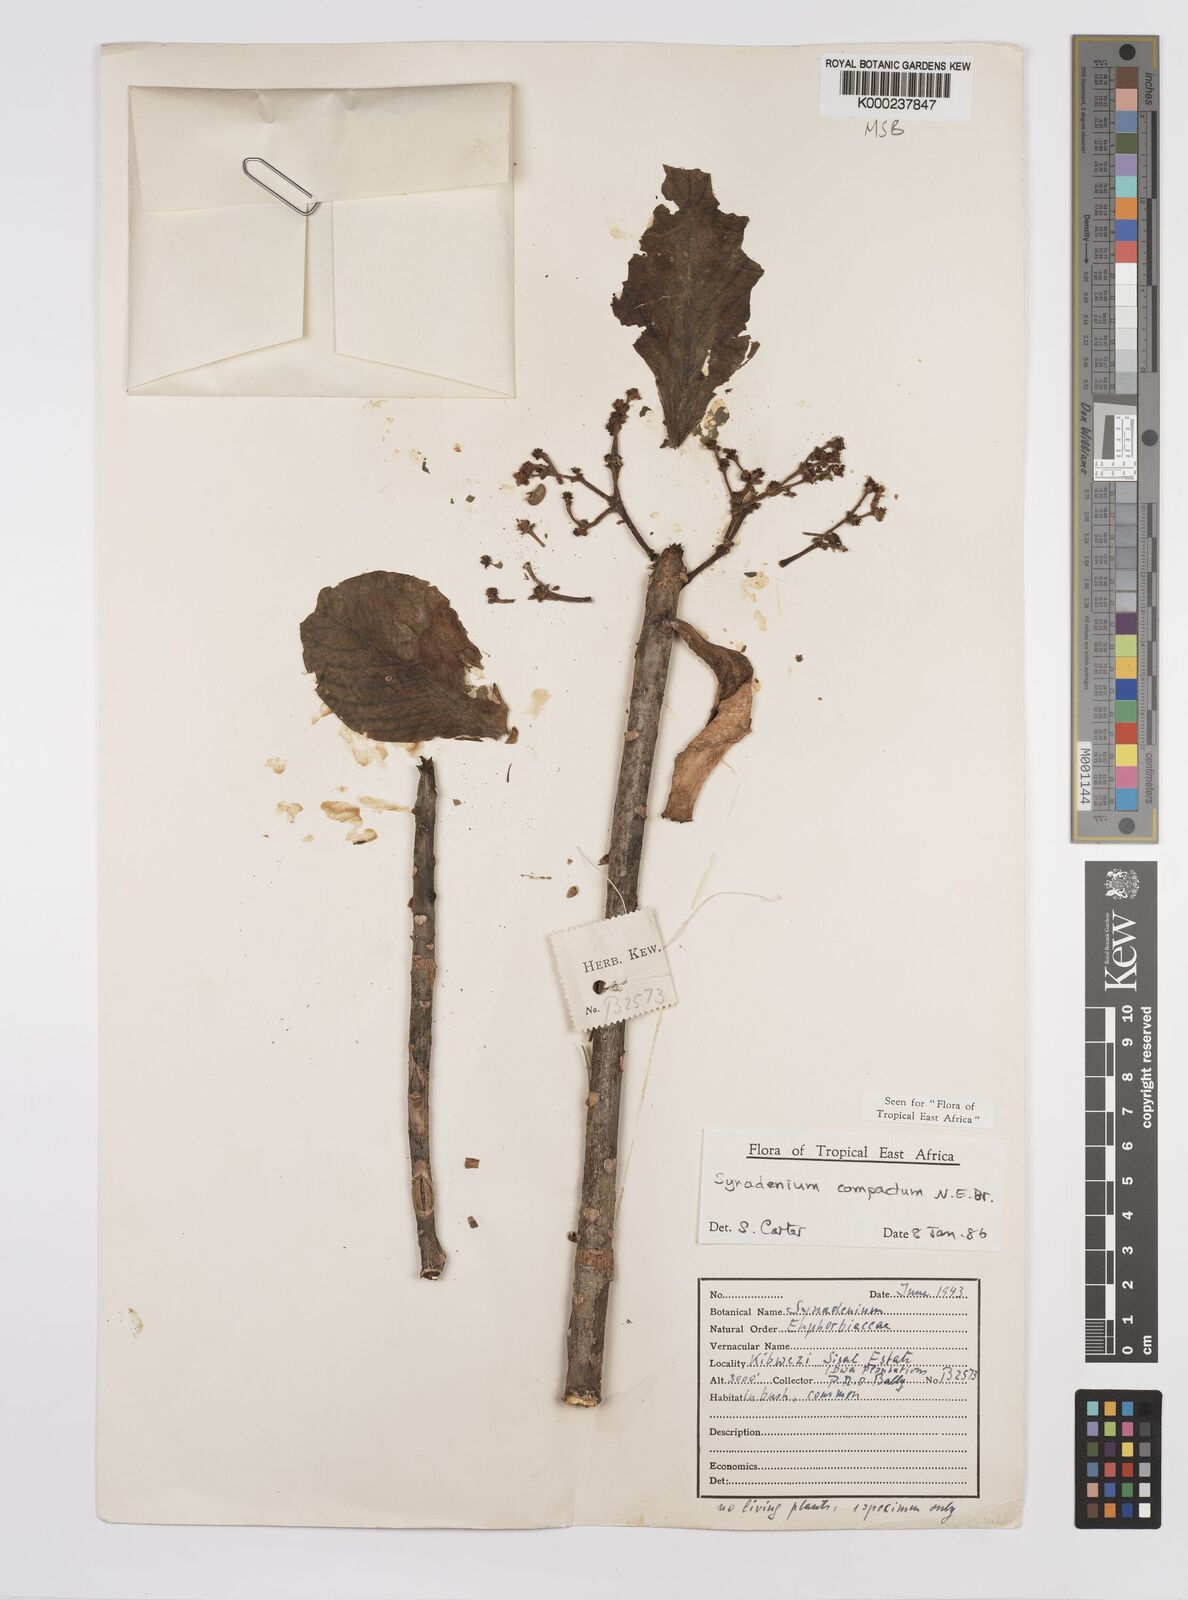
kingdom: Plantae
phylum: Tracheophyta
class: Magnoliopsida
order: Malpighiales
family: Euphorbiaceae
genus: Euphorbia
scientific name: Euphorbia bicompacta
